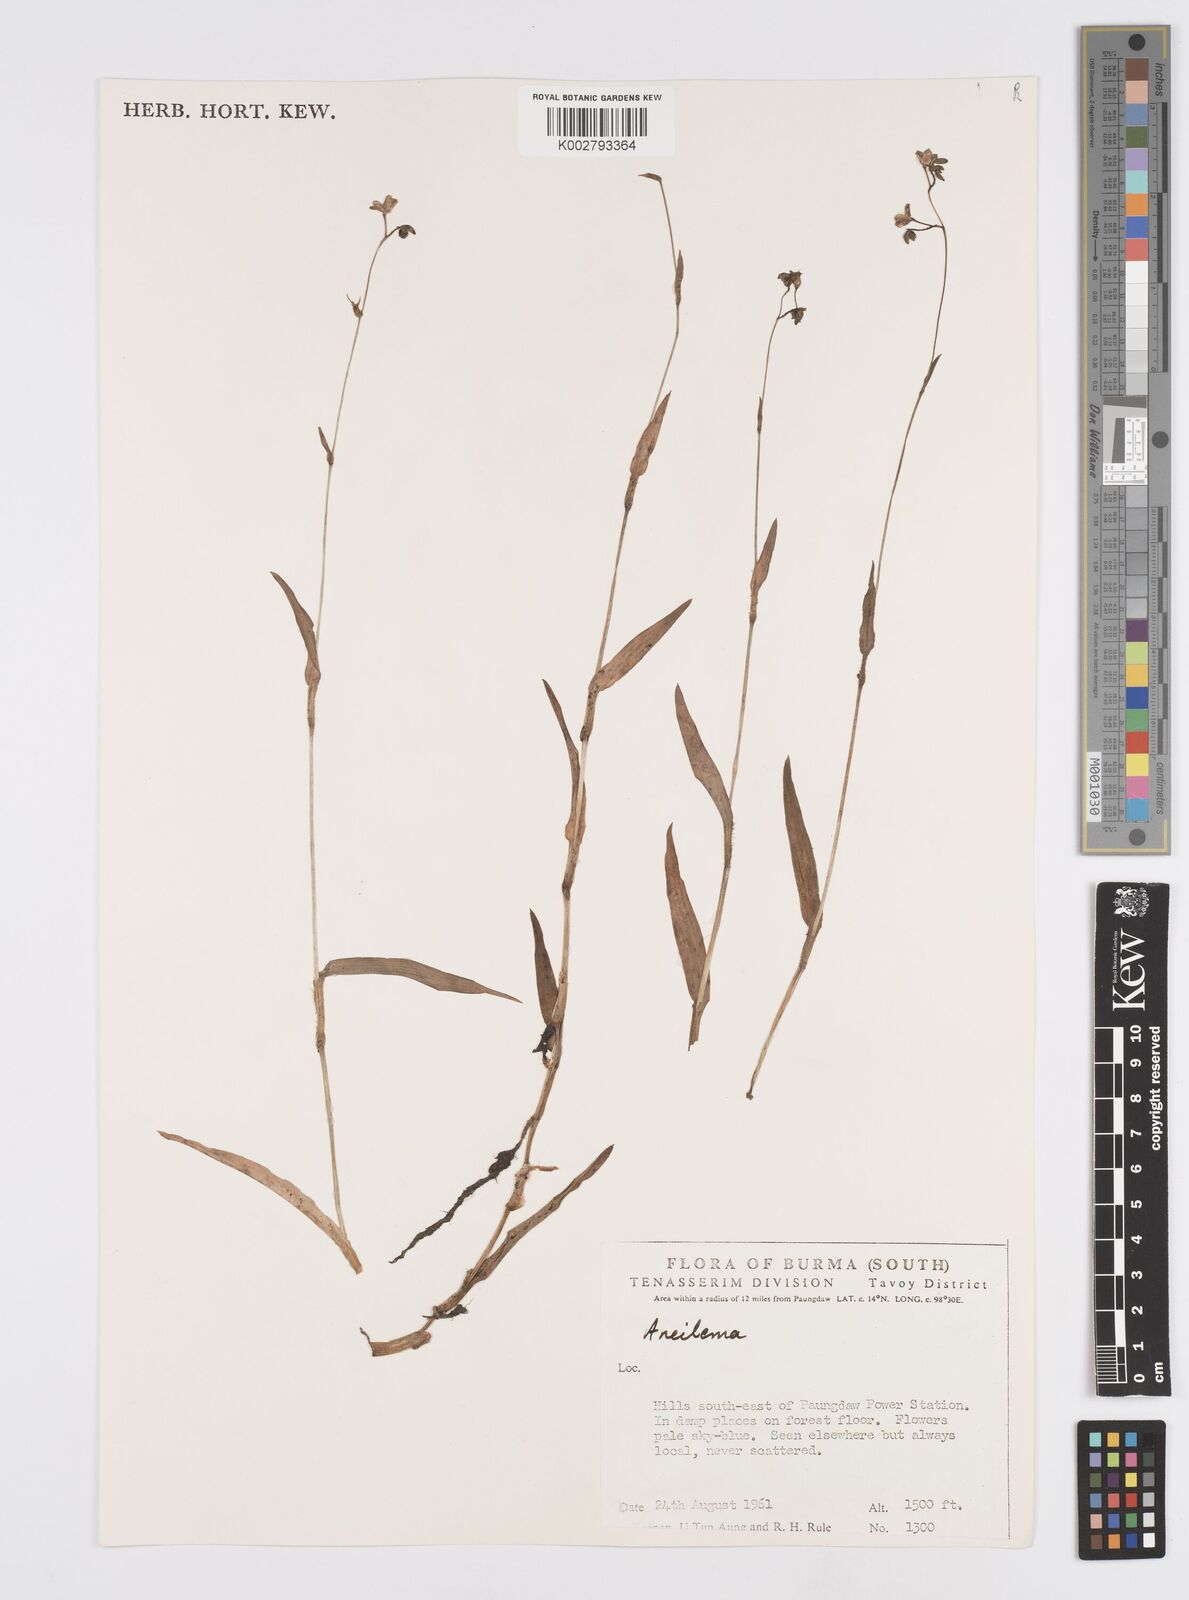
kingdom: Plantae
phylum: Tracheophyta
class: Liliopsida
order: Commelinales
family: Commelinaceae
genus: Murdannia
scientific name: Murdannia
